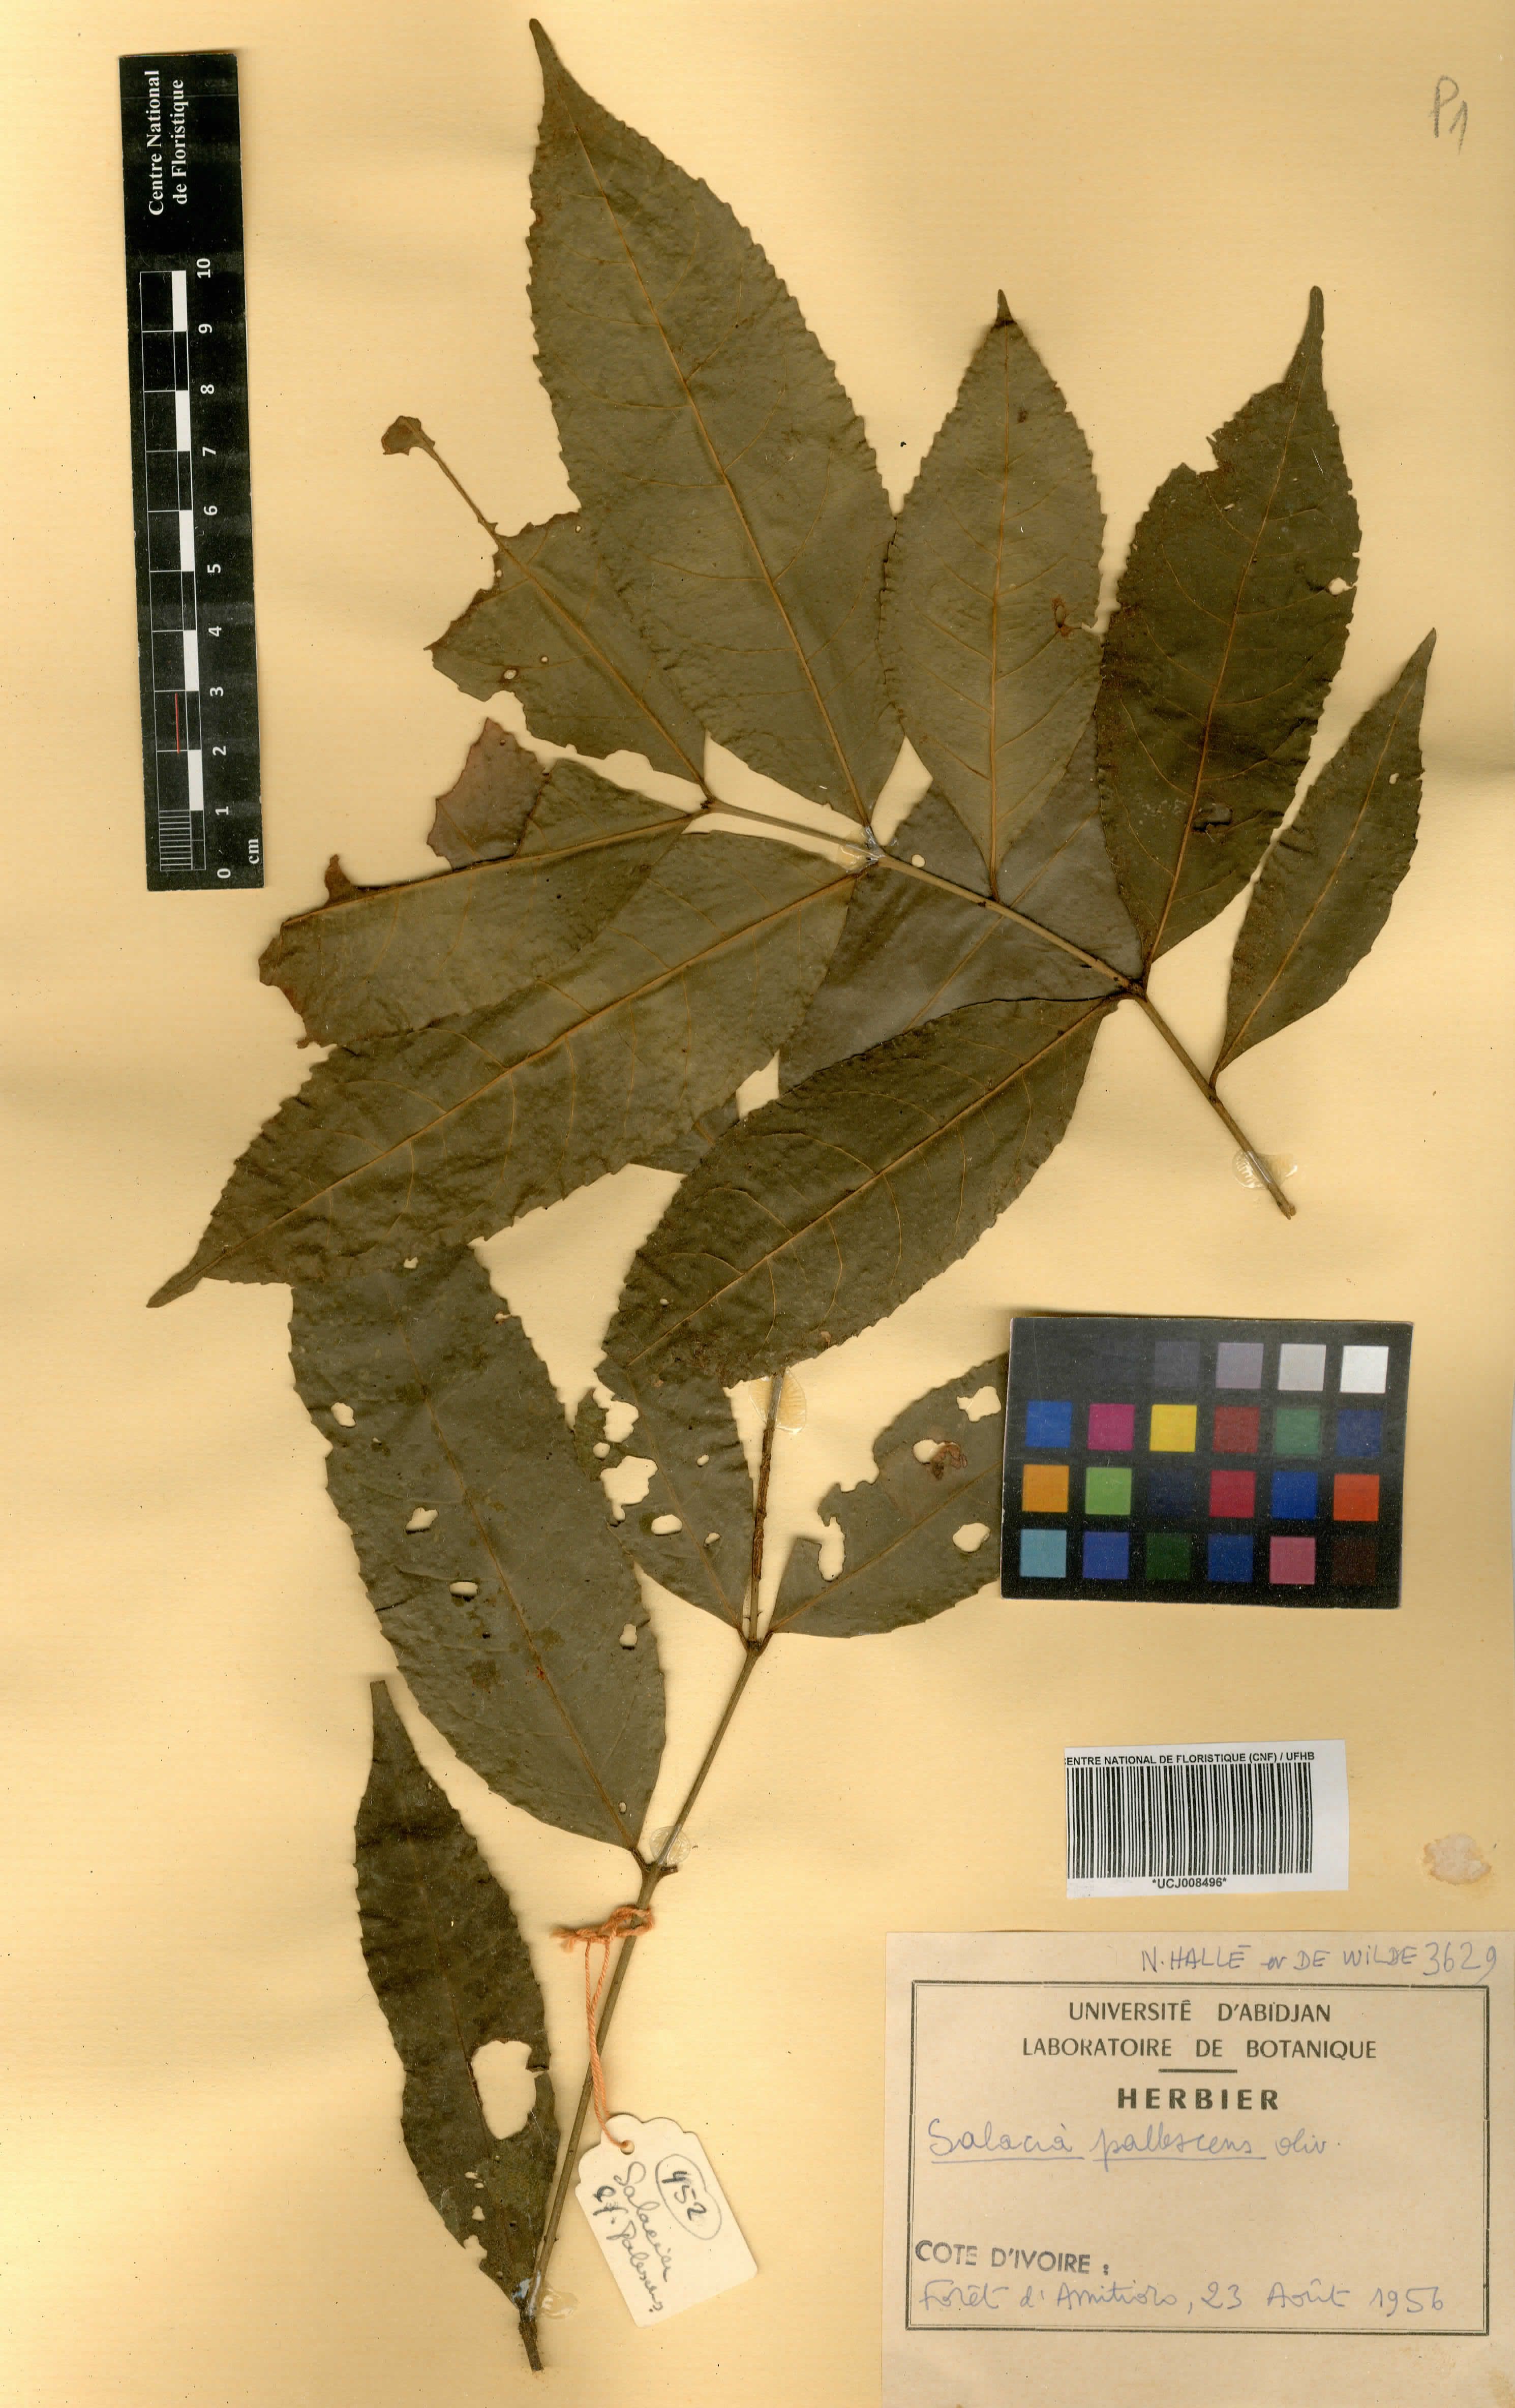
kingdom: Plantae
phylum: Tracheophyta
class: Magnoliopsida
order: Celastrales
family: Celastraceae
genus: Salacia
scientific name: Salacia pallescens
